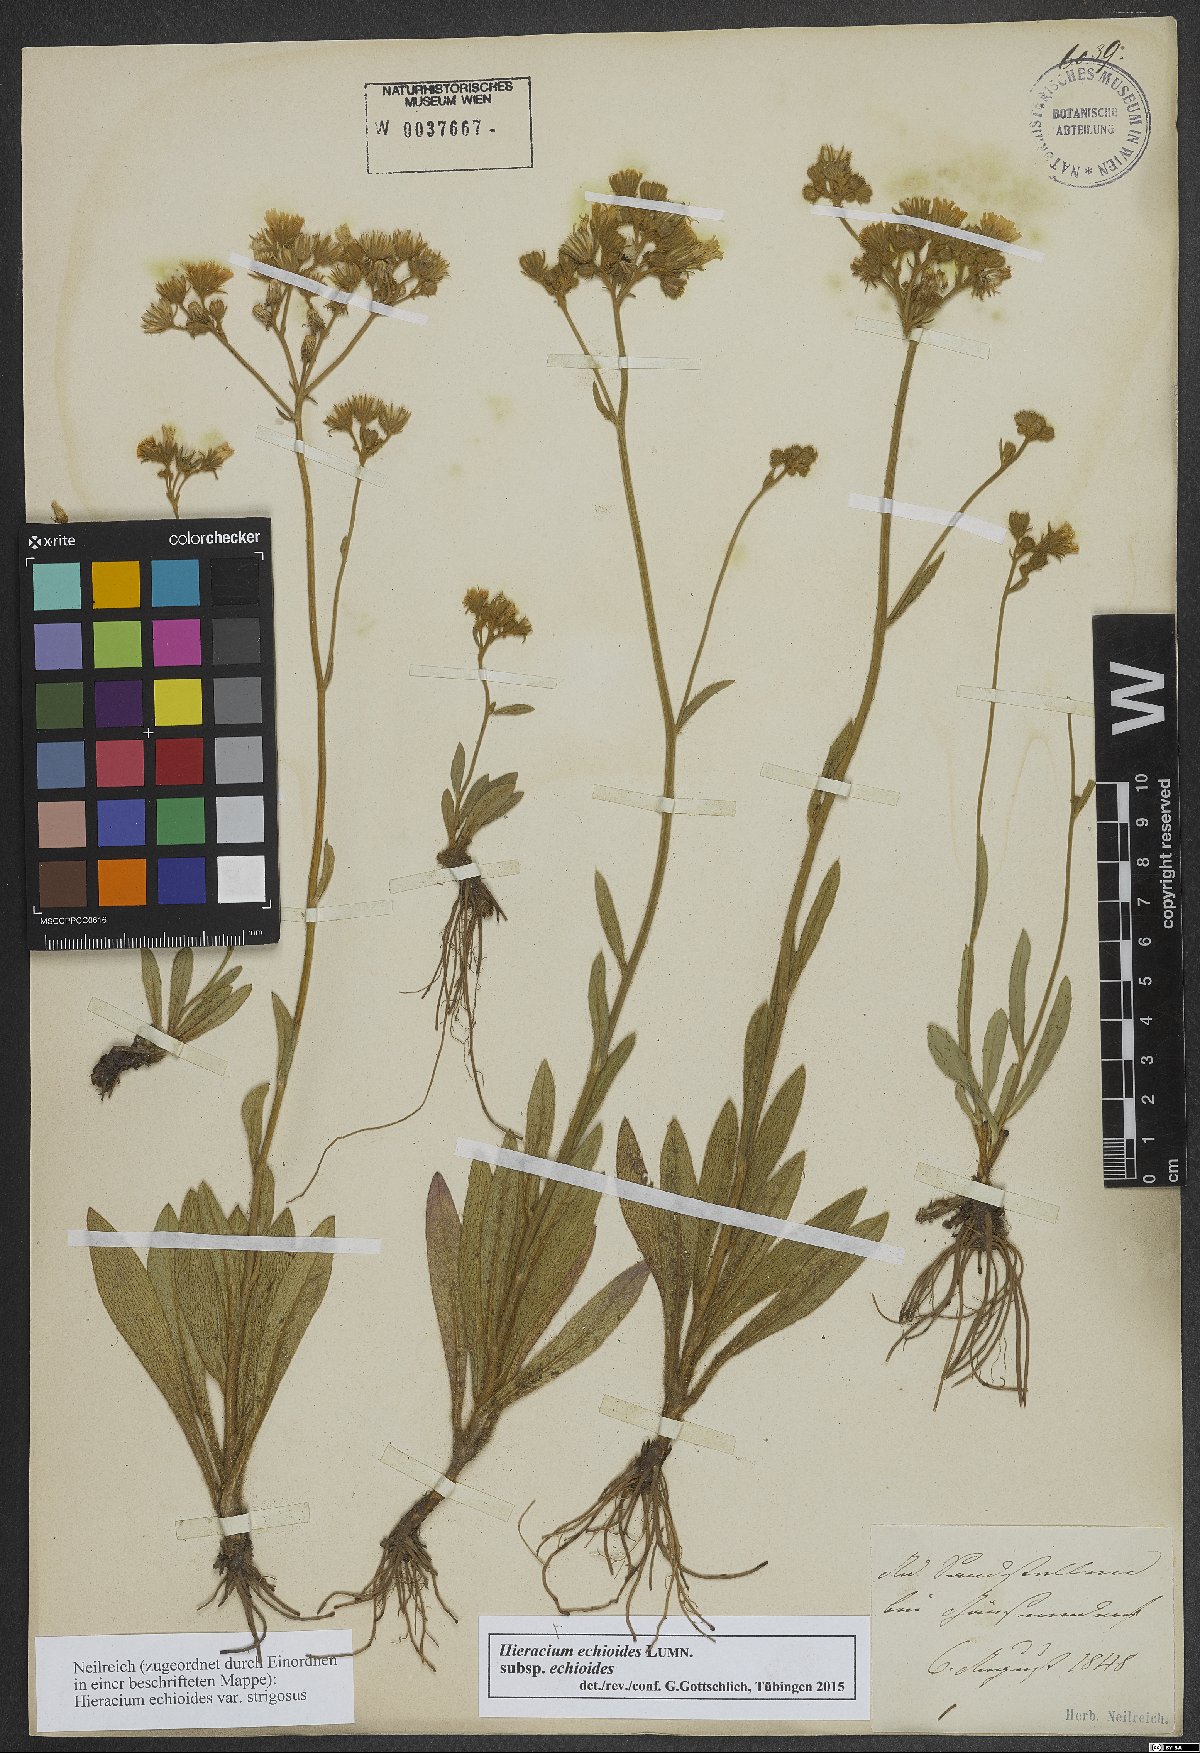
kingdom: Plantae
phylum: Tracheophyta
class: Magnoliopsida
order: Asterales
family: Asteraceae
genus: Pilosella
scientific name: Pilosella echioides
